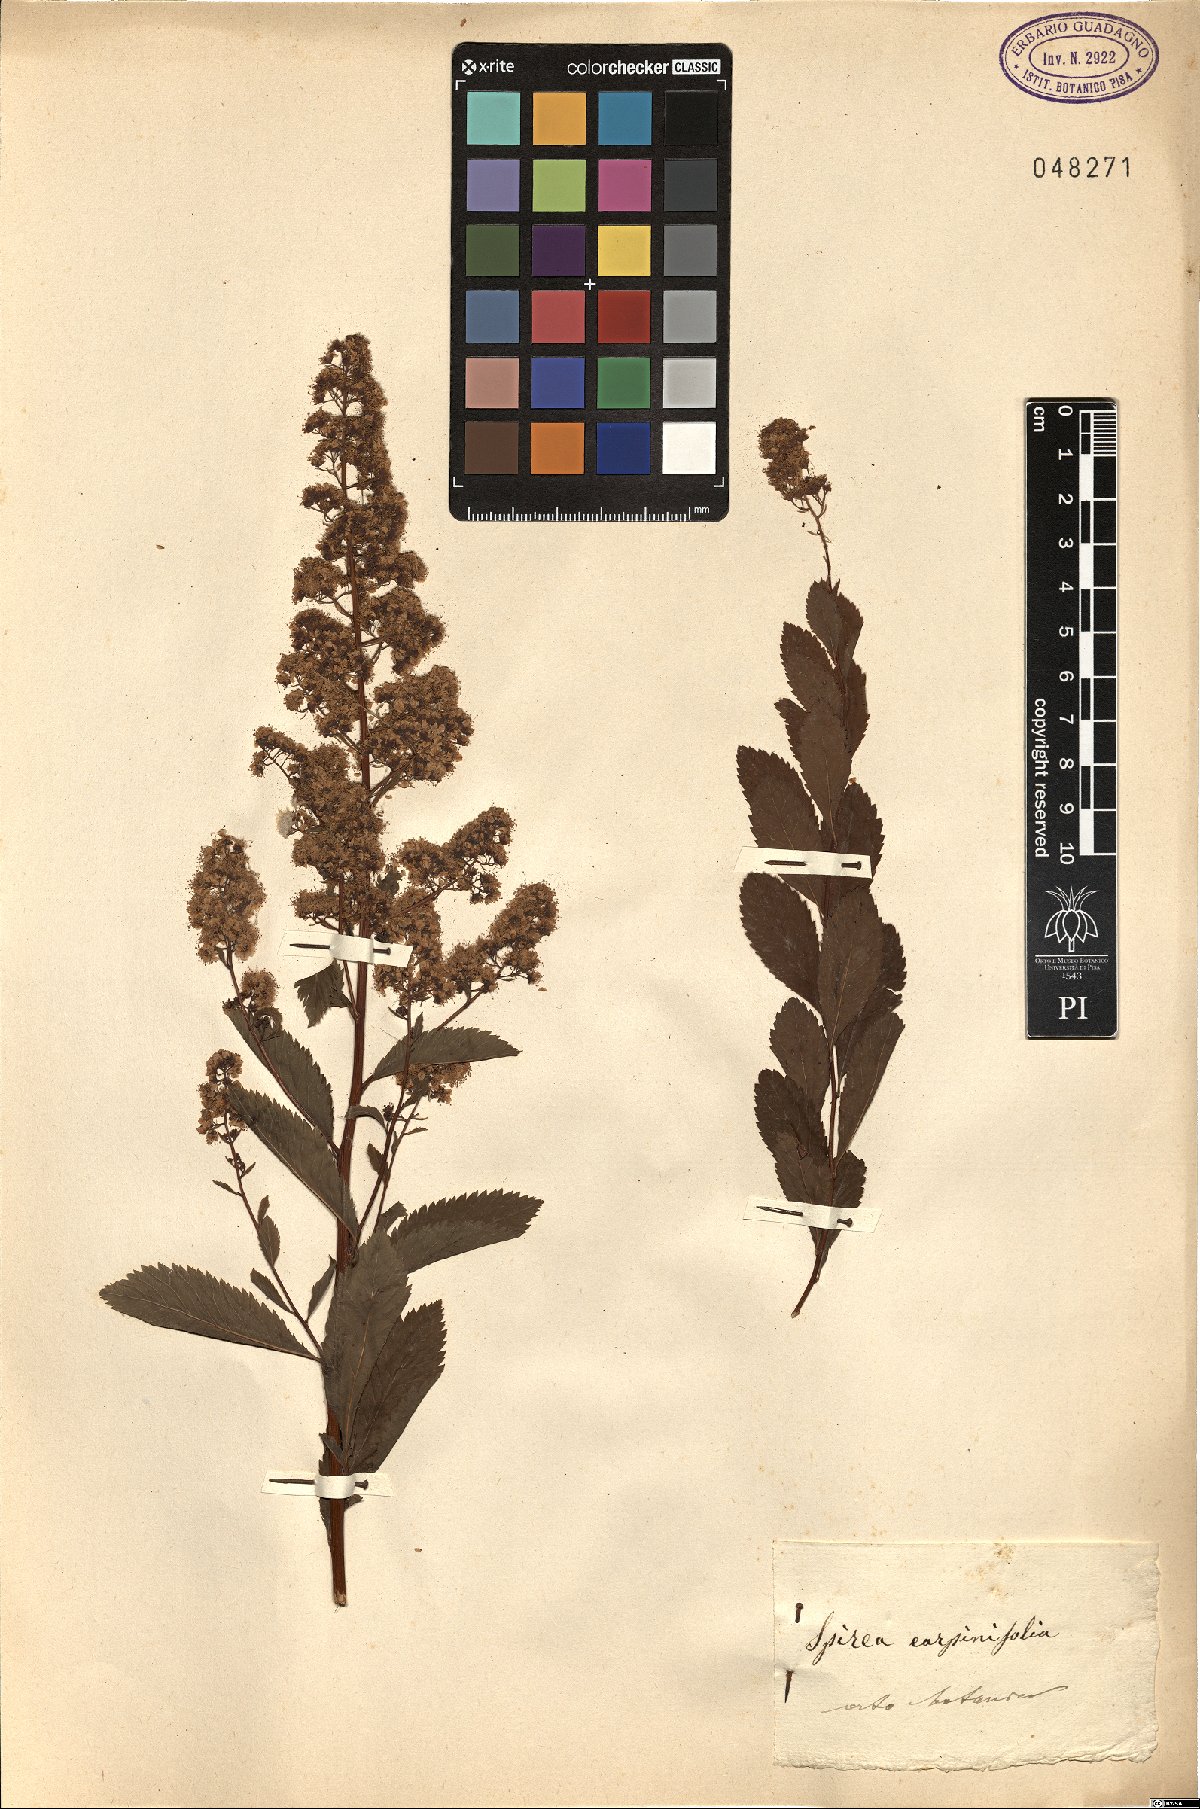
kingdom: Plantae
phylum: Tracheophyta
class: Magnoliopsida
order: Rosales
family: Rosaceae
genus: Spiraea
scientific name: Spiraea
